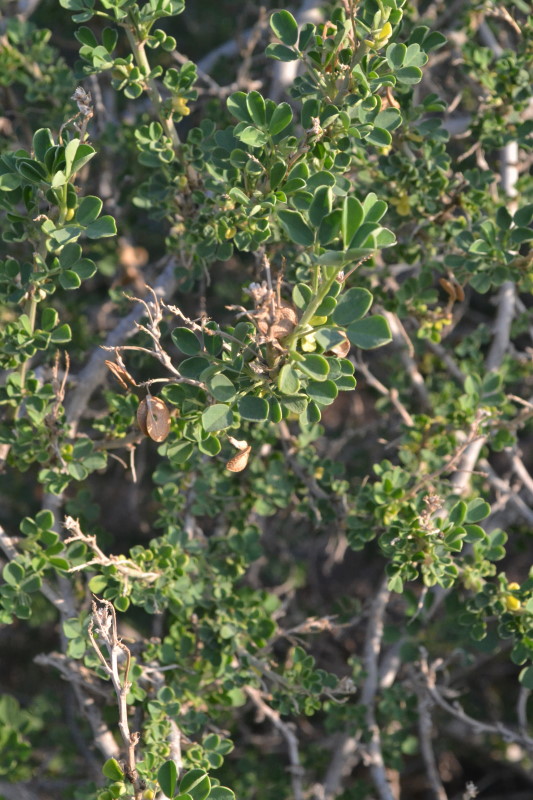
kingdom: Plantae
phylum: Tracheophyta
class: Magnoliopsida
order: Fabales
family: Fabaceae
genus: Medicago
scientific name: Medicago arborea
